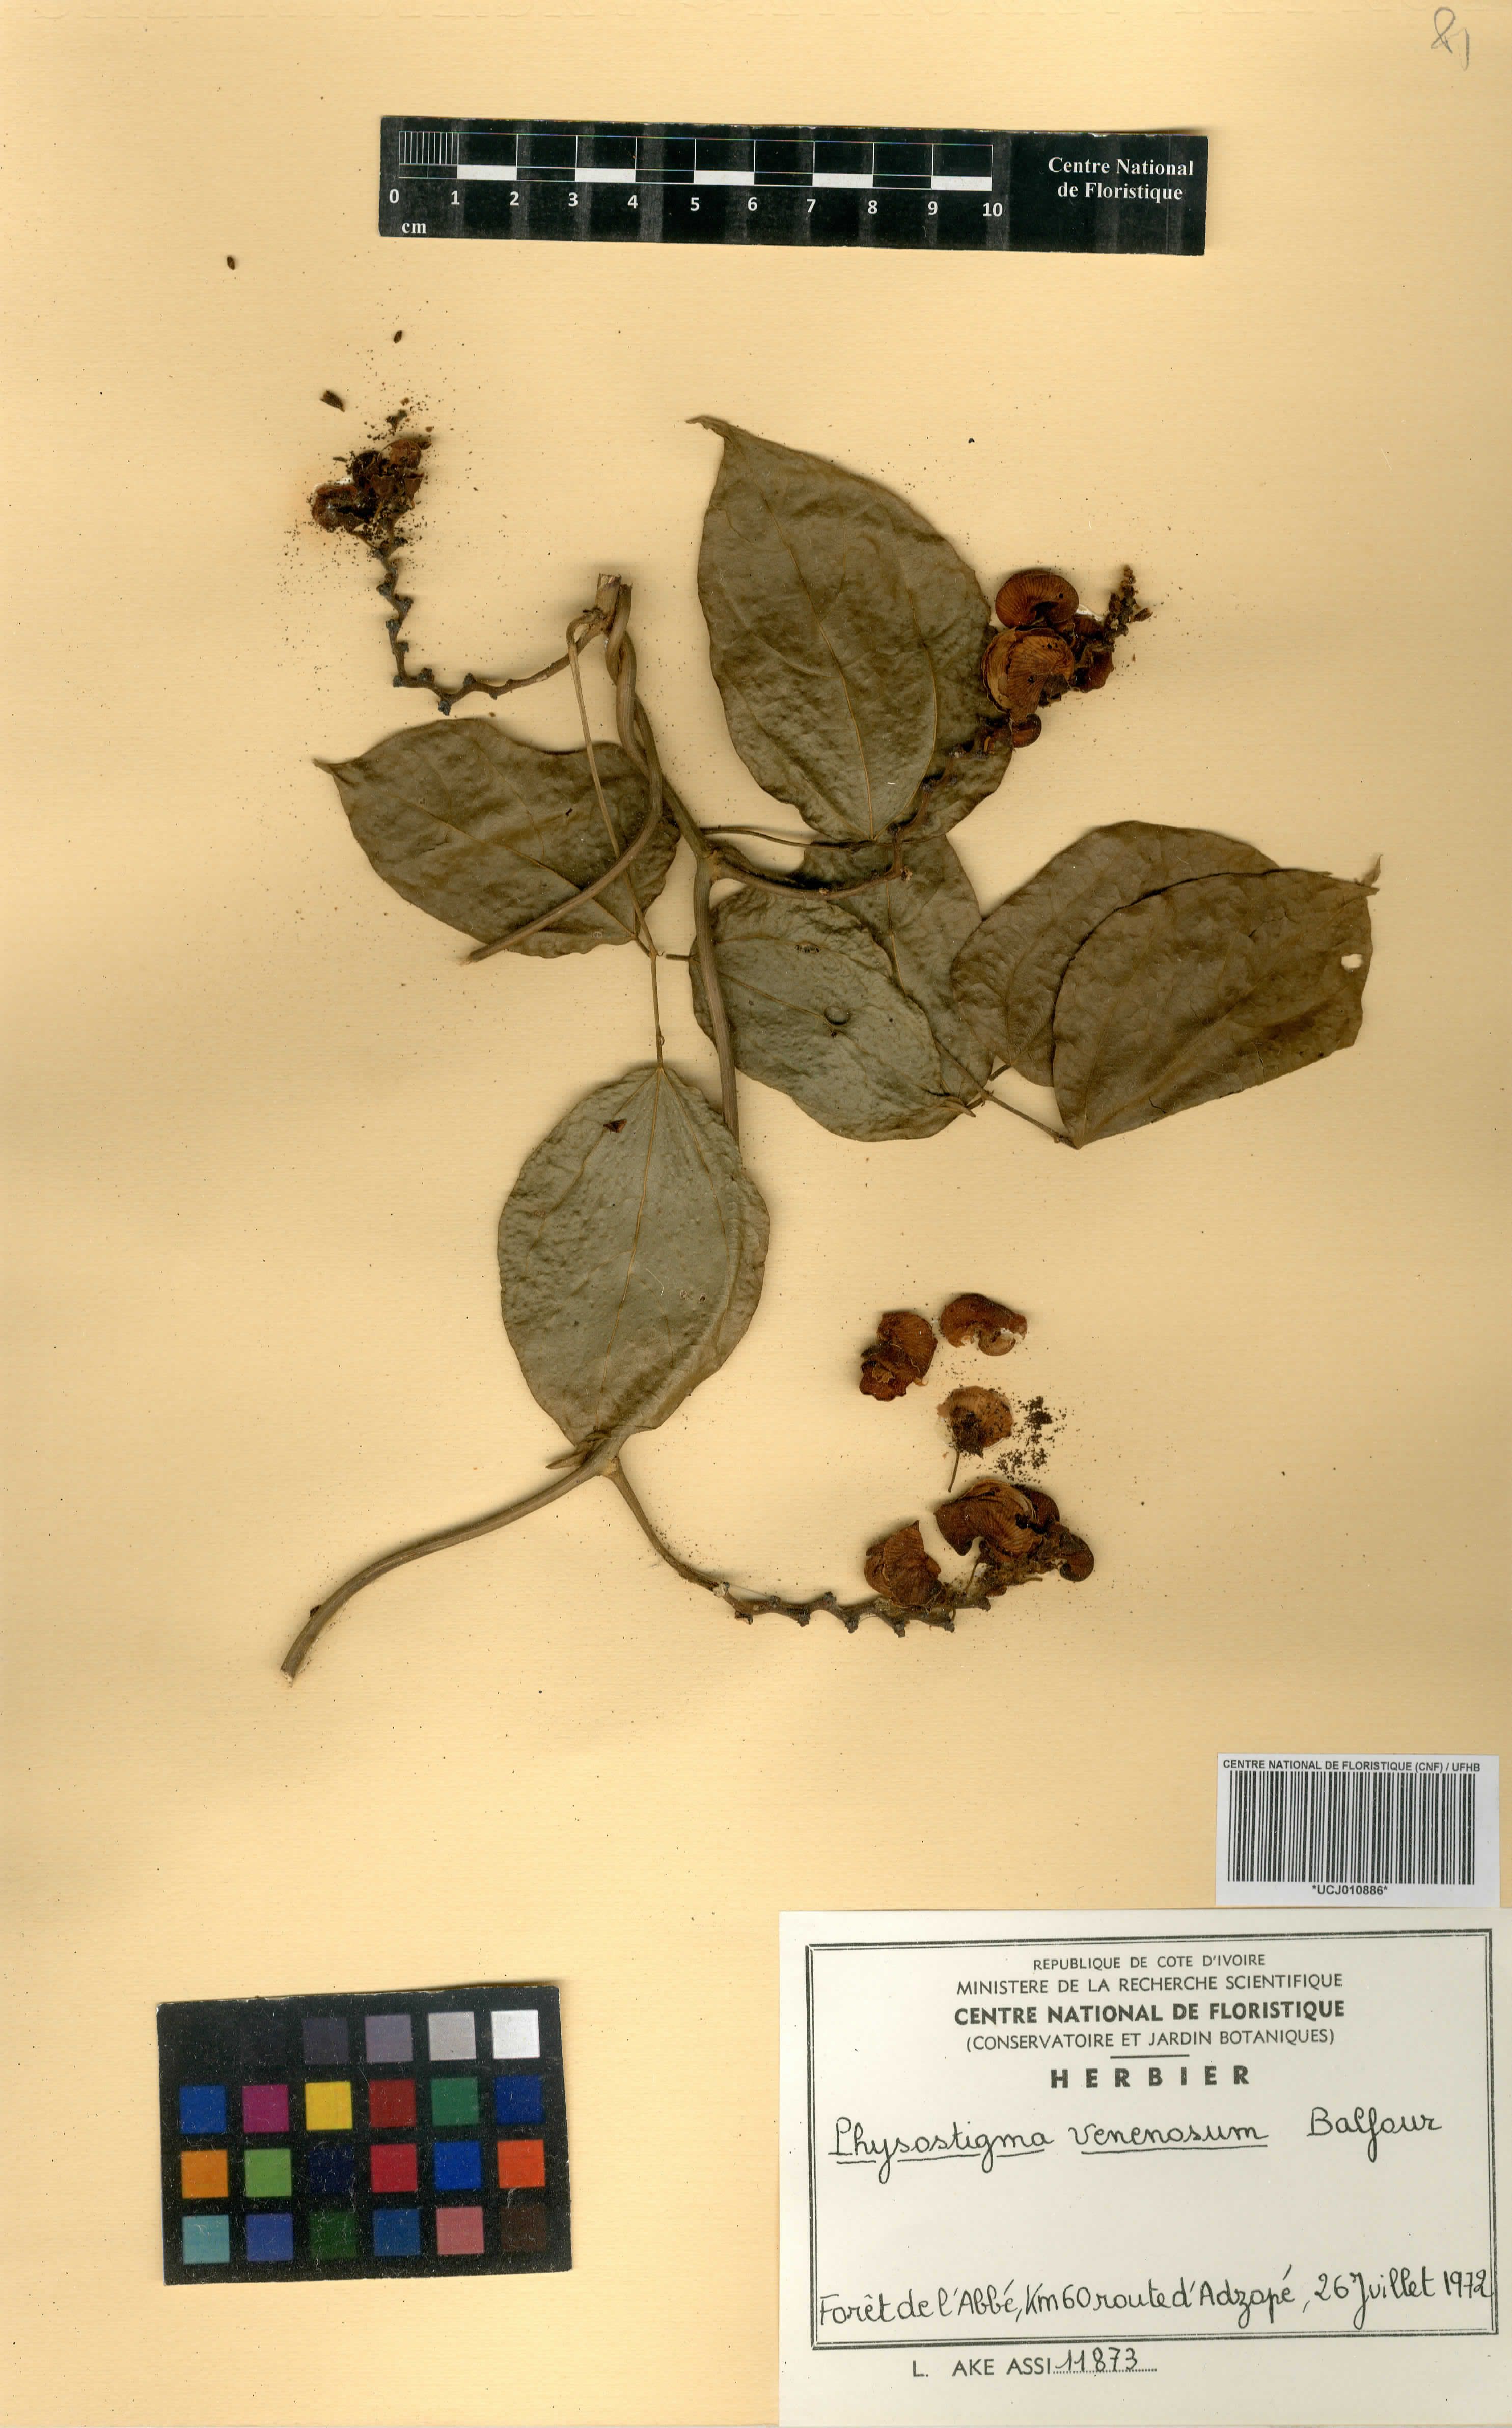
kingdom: Plantae
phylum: Tracheophyta
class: Magnoliopsida
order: Fabales
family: Fabaceae
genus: Physostigma
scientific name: Physostigma venenosum
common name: Calabar-bean
